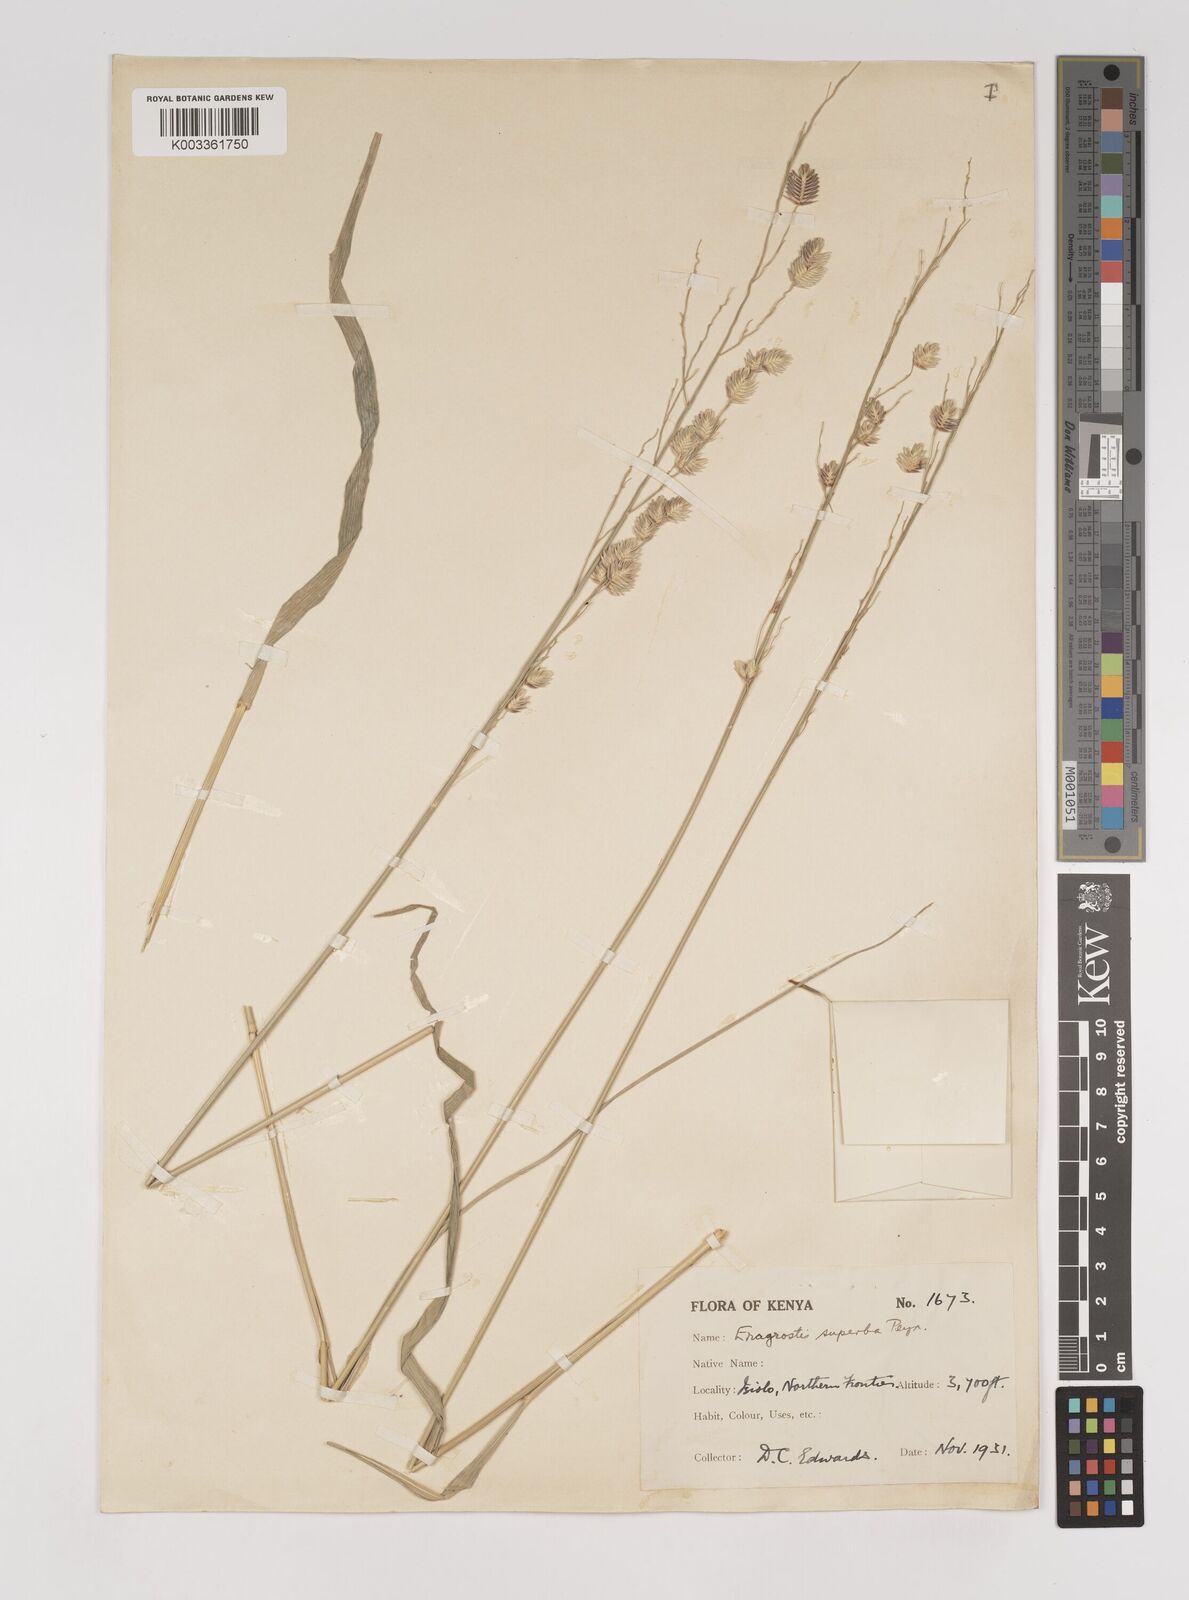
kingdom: Plantae
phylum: Tracheophyta
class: Liliopsida
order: Poales
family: Poaceae
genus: Eragrostis
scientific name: Eragrostis superba
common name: Wilman lovegrass
